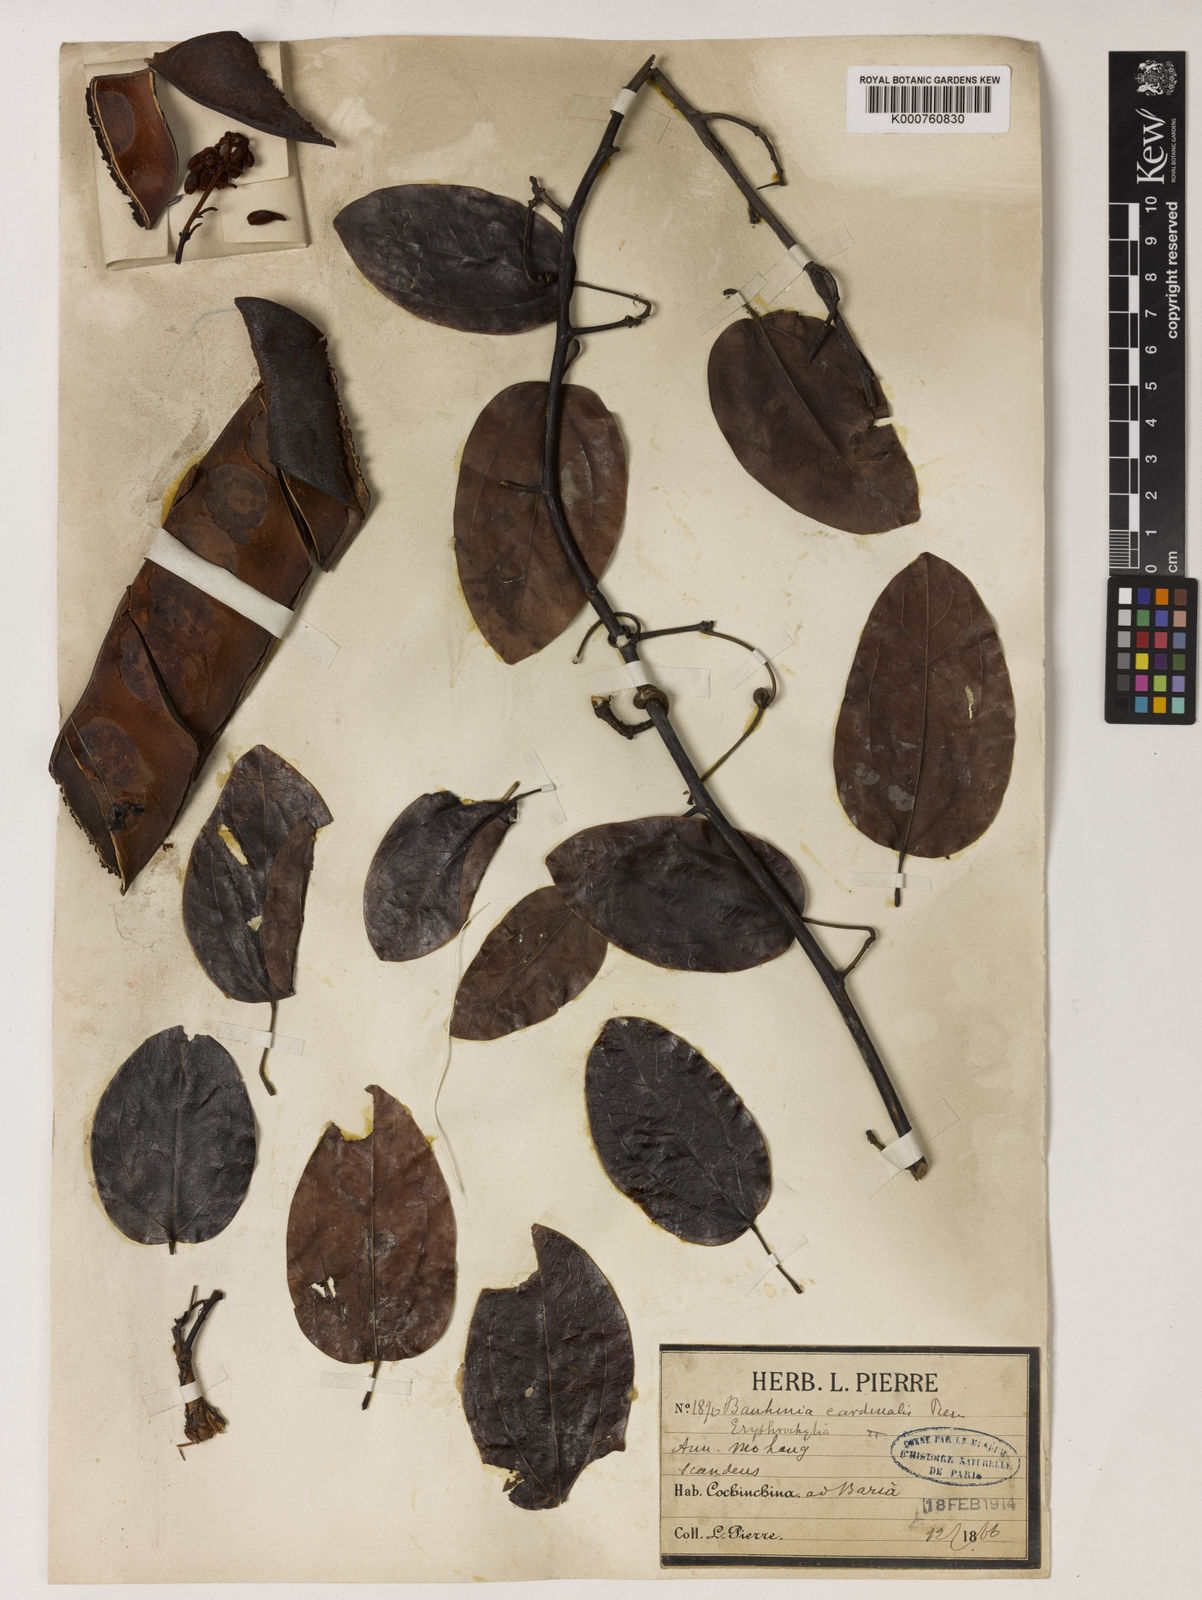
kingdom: Plantae
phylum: Tracheophyta
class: Magnoliopsida
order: Fabales
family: Fabaceae
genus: Phanera
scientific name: Phanera cardinalis
